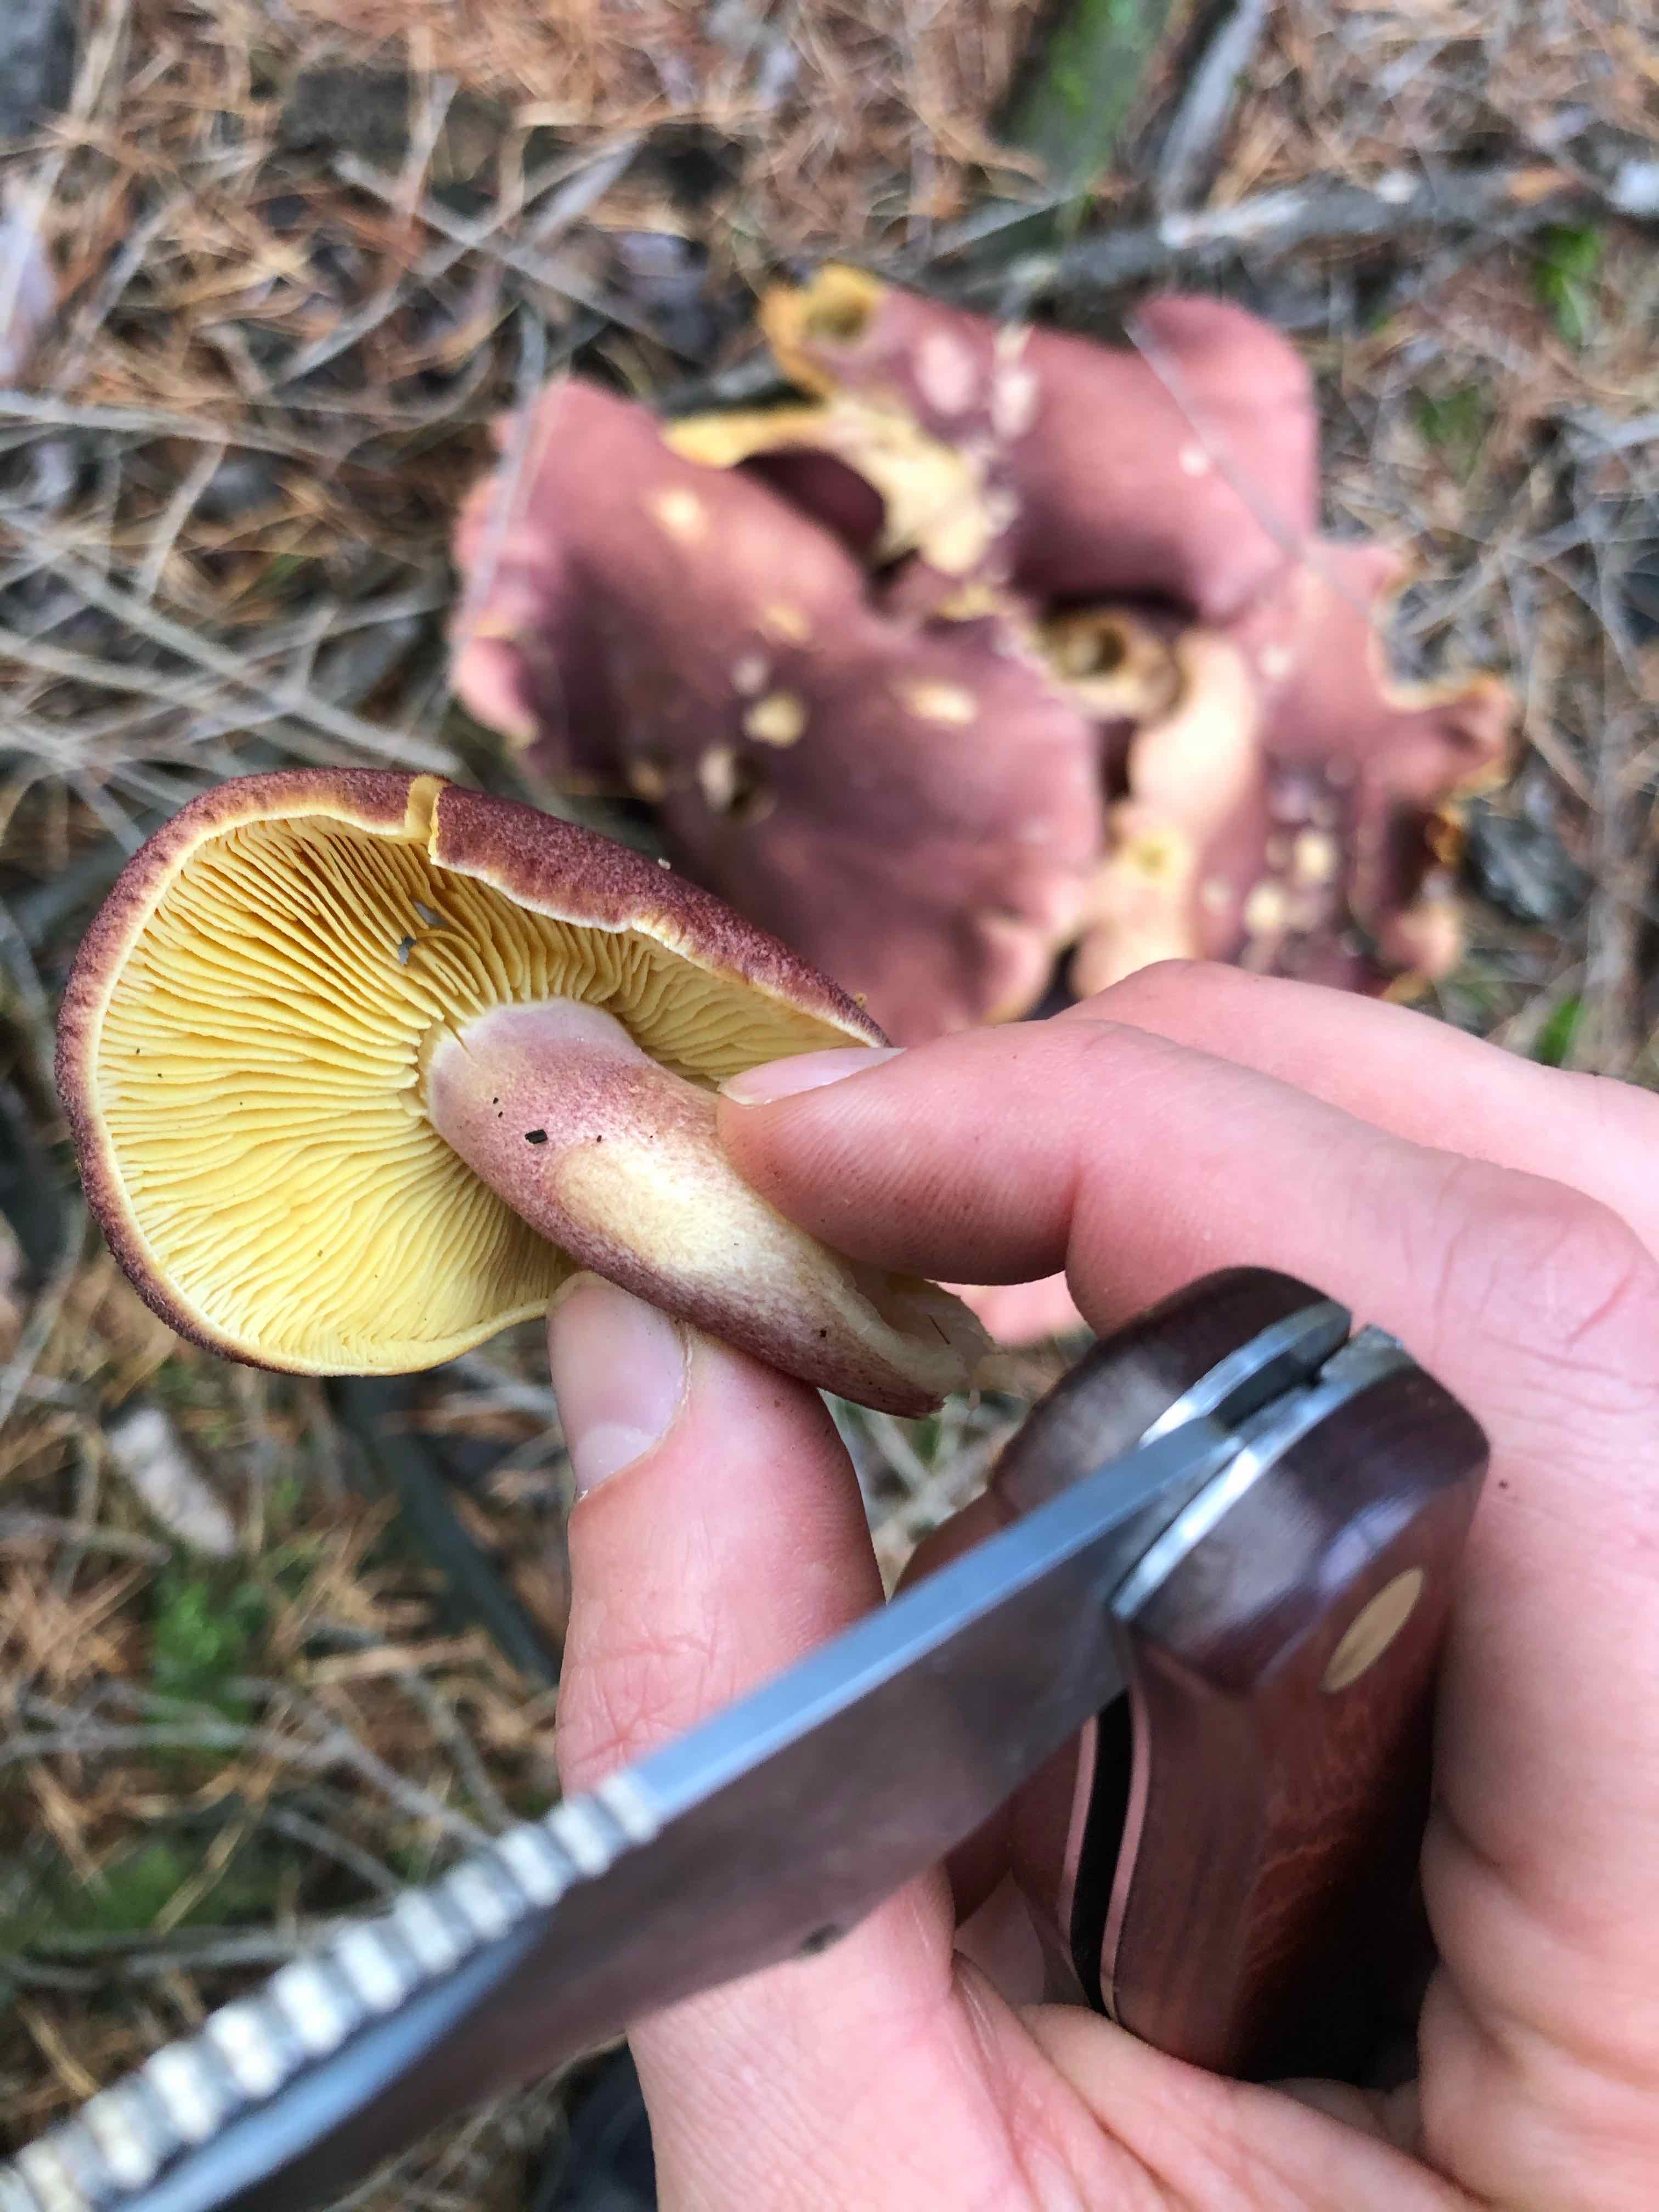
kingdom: Fungi
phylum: Basidiomycota
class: Agaricomycetes
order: Agaricales
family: Tricholomataceae
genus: Tricholomopsis
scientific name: Tricholomopsis rutilans
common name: purpur-væbnerhat
